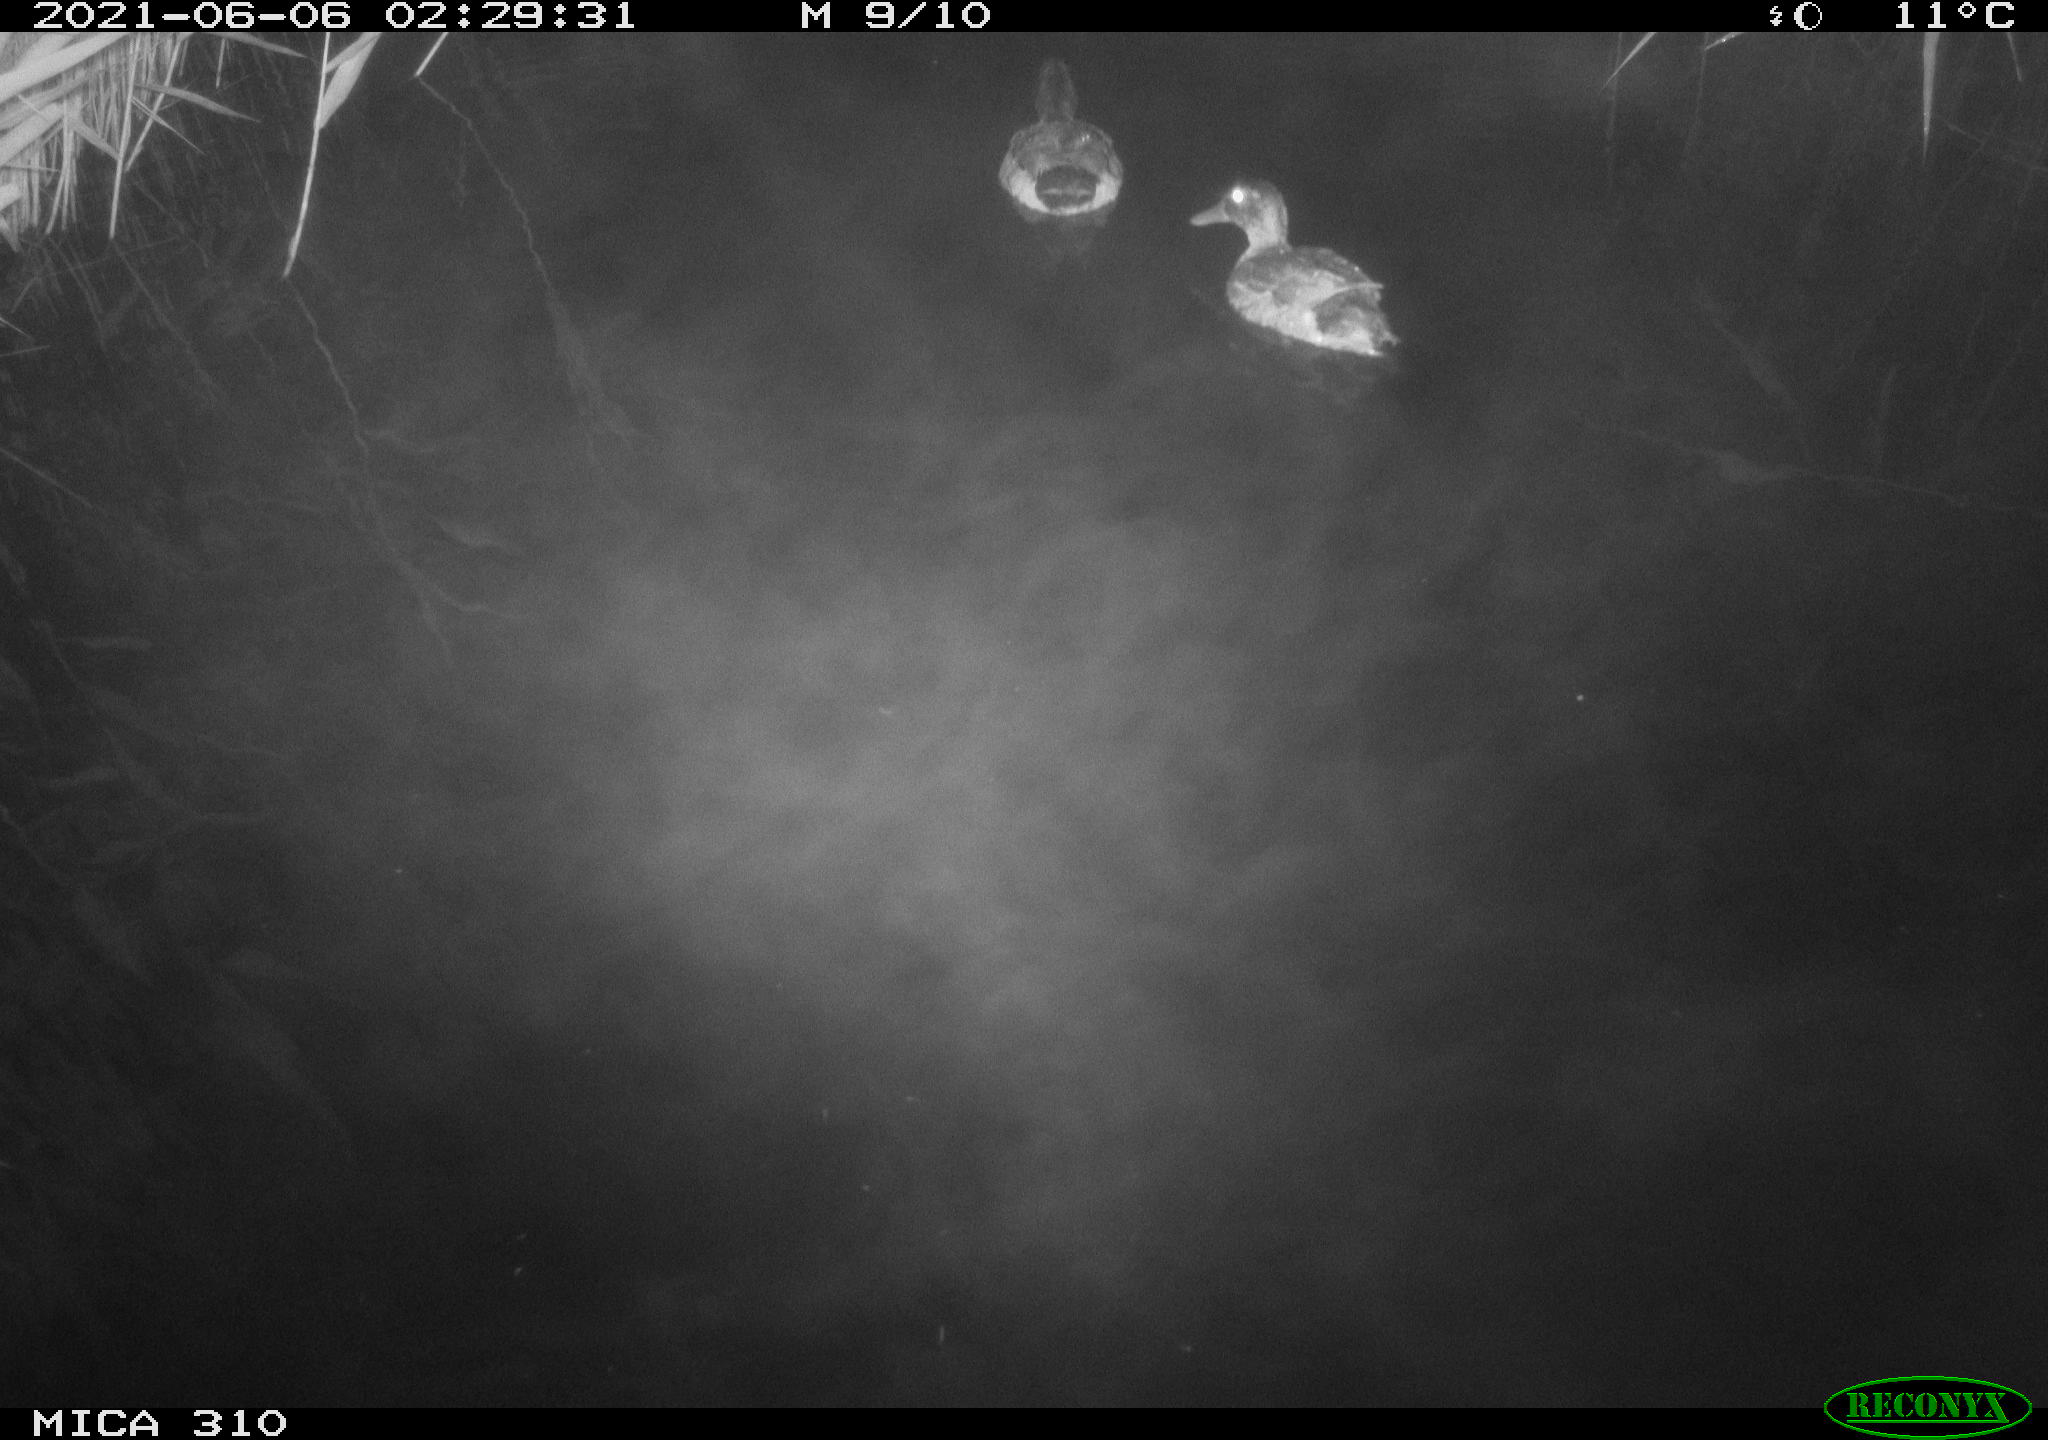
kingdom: Animalia
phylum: Chordata
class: Aves
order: Anseriformes
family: Anatidae
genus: Anas
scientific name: Anas
